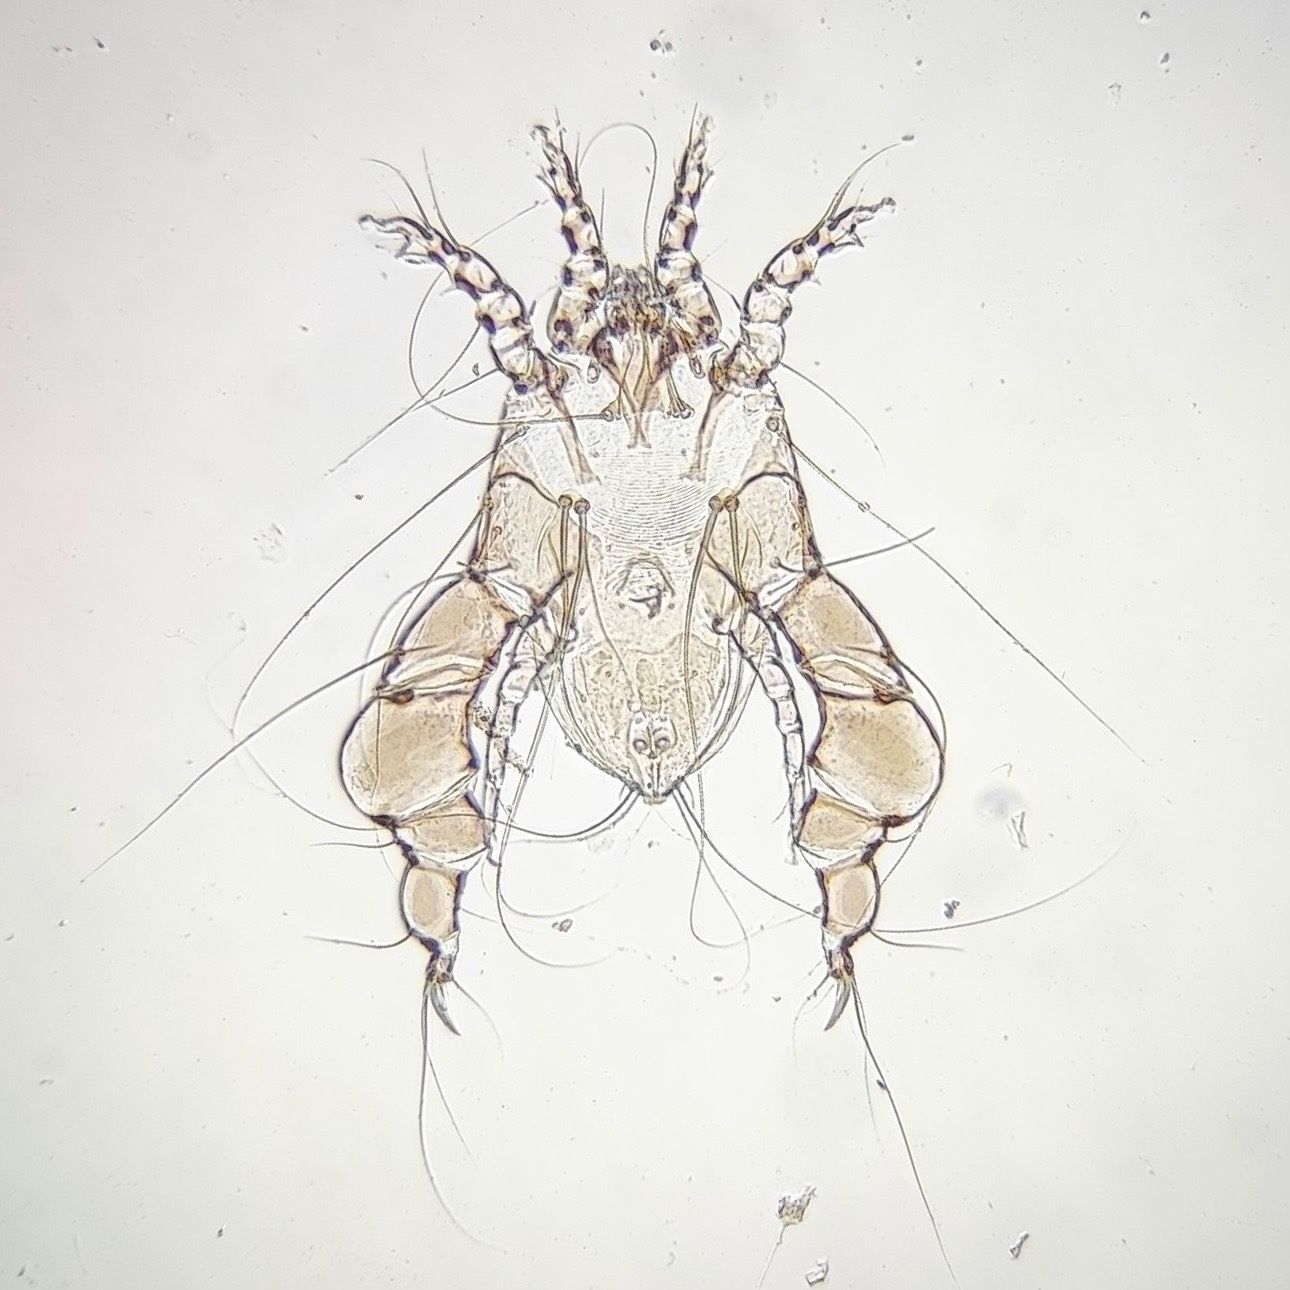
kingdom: Animalia
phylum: Arthropoda
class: Arachnida
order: Sarcoptiformes
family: Analgidae
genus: Analges
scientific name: Analges sphaeropus
